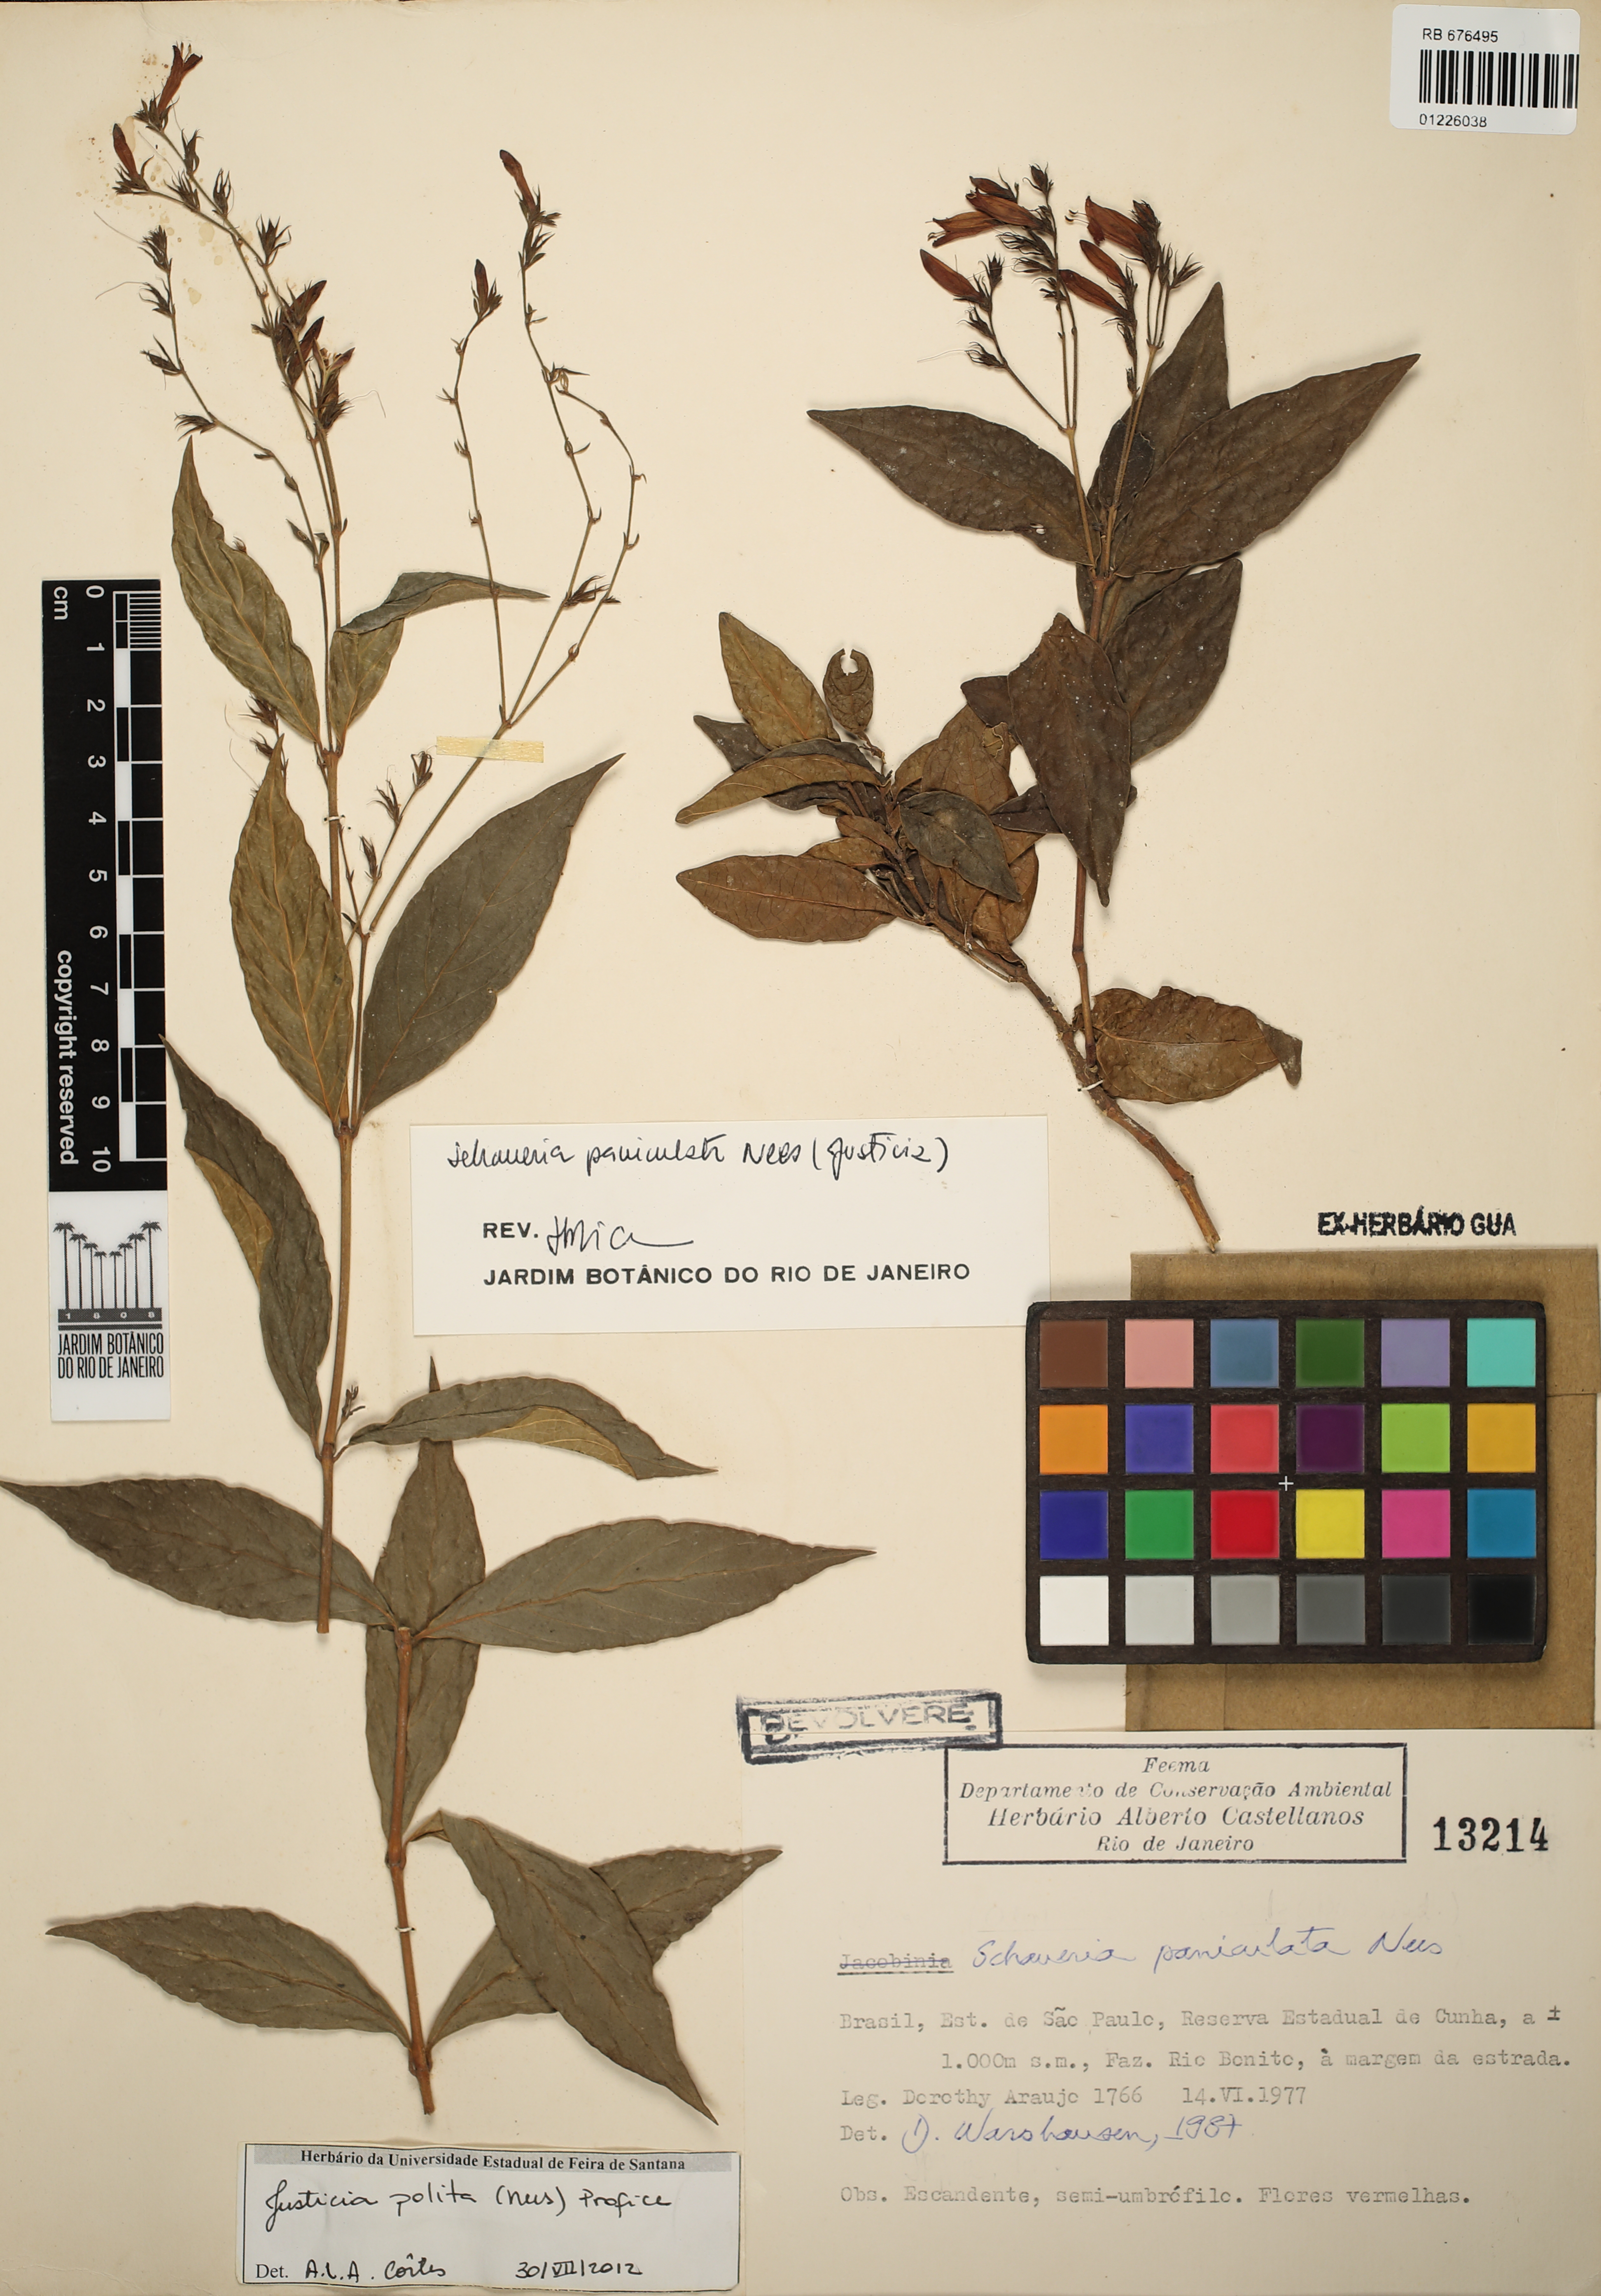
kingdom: Plantae
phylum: Tracheophyta
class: Magnoliopsida
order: Lamiales
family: Acanthaceae
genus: Justicia
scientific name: Justicia polita
